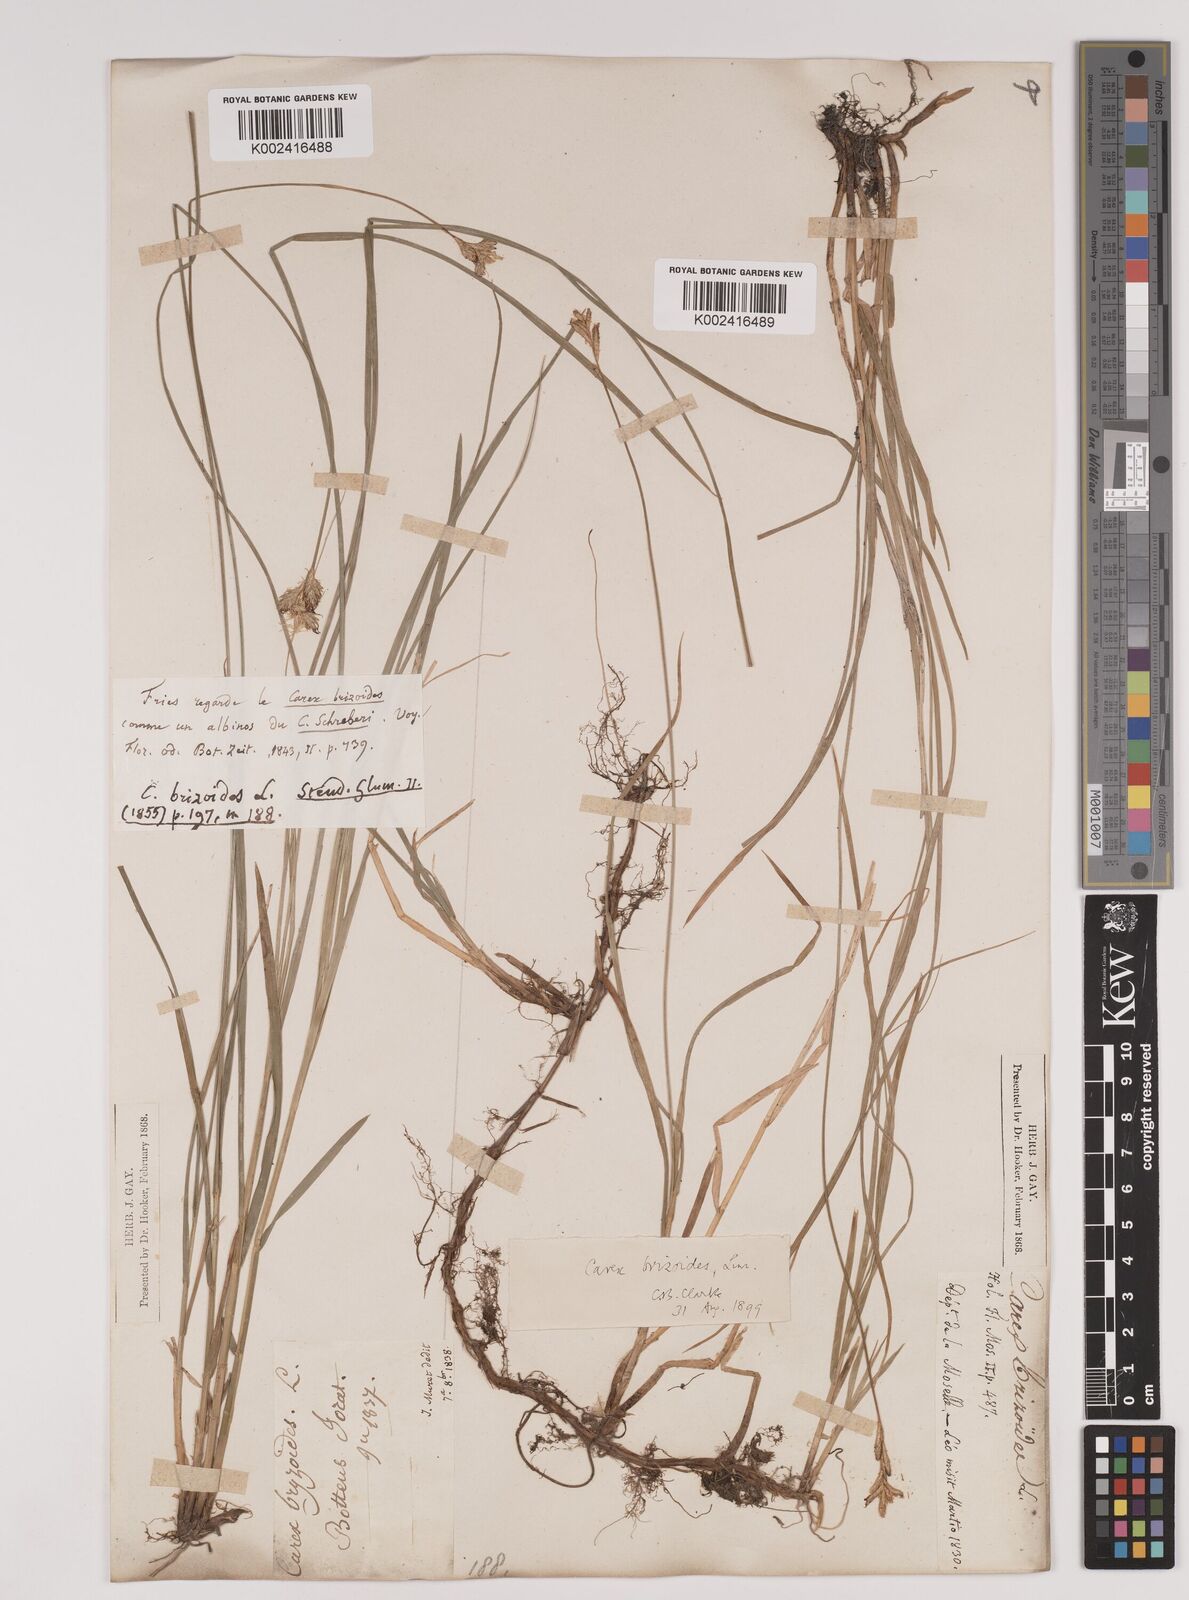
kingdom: Plantae
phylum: Tracheophyta
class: Liliopsida
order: Poales
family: Cyperaceae
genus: Carex
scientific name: Carex brizoides
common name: Quaking-grass sedge
